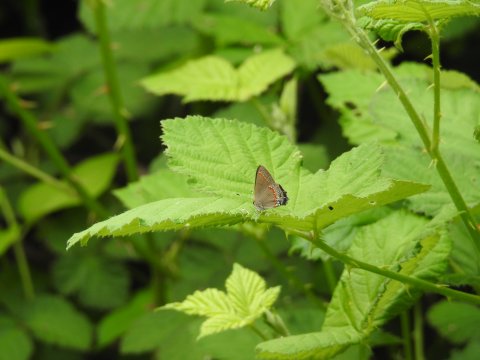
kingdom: Animalia
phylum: Arthropoda
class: Insecta
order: Lepidoptera
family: Lycaenidae
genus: Calycopis
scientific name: Calycopis cecrops
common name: Red-banded Hairstreak
